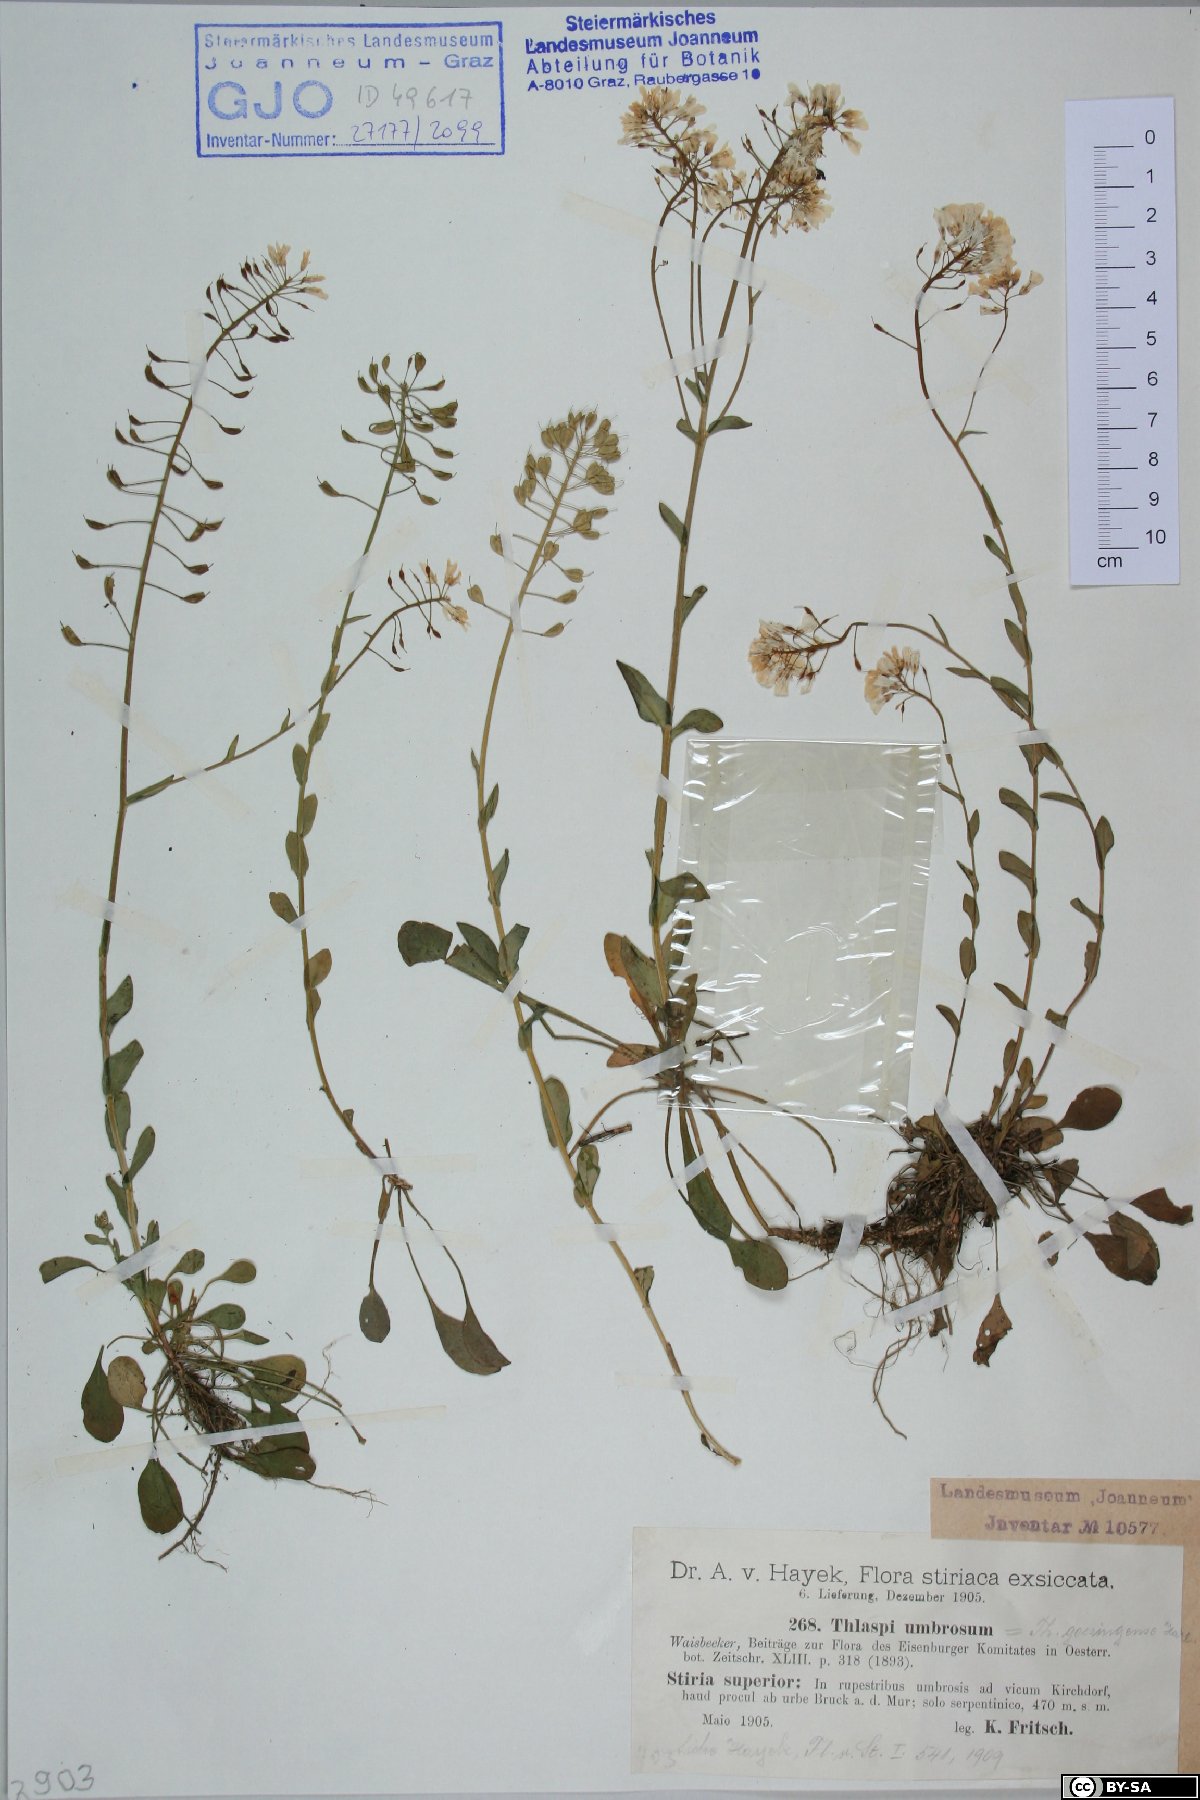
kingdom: Plantae
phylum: Tracheophyta
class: Magnoliopsida
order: Brassicales
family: Brassicaceae
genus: Noccaea
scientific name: Noccaea goesingensis
